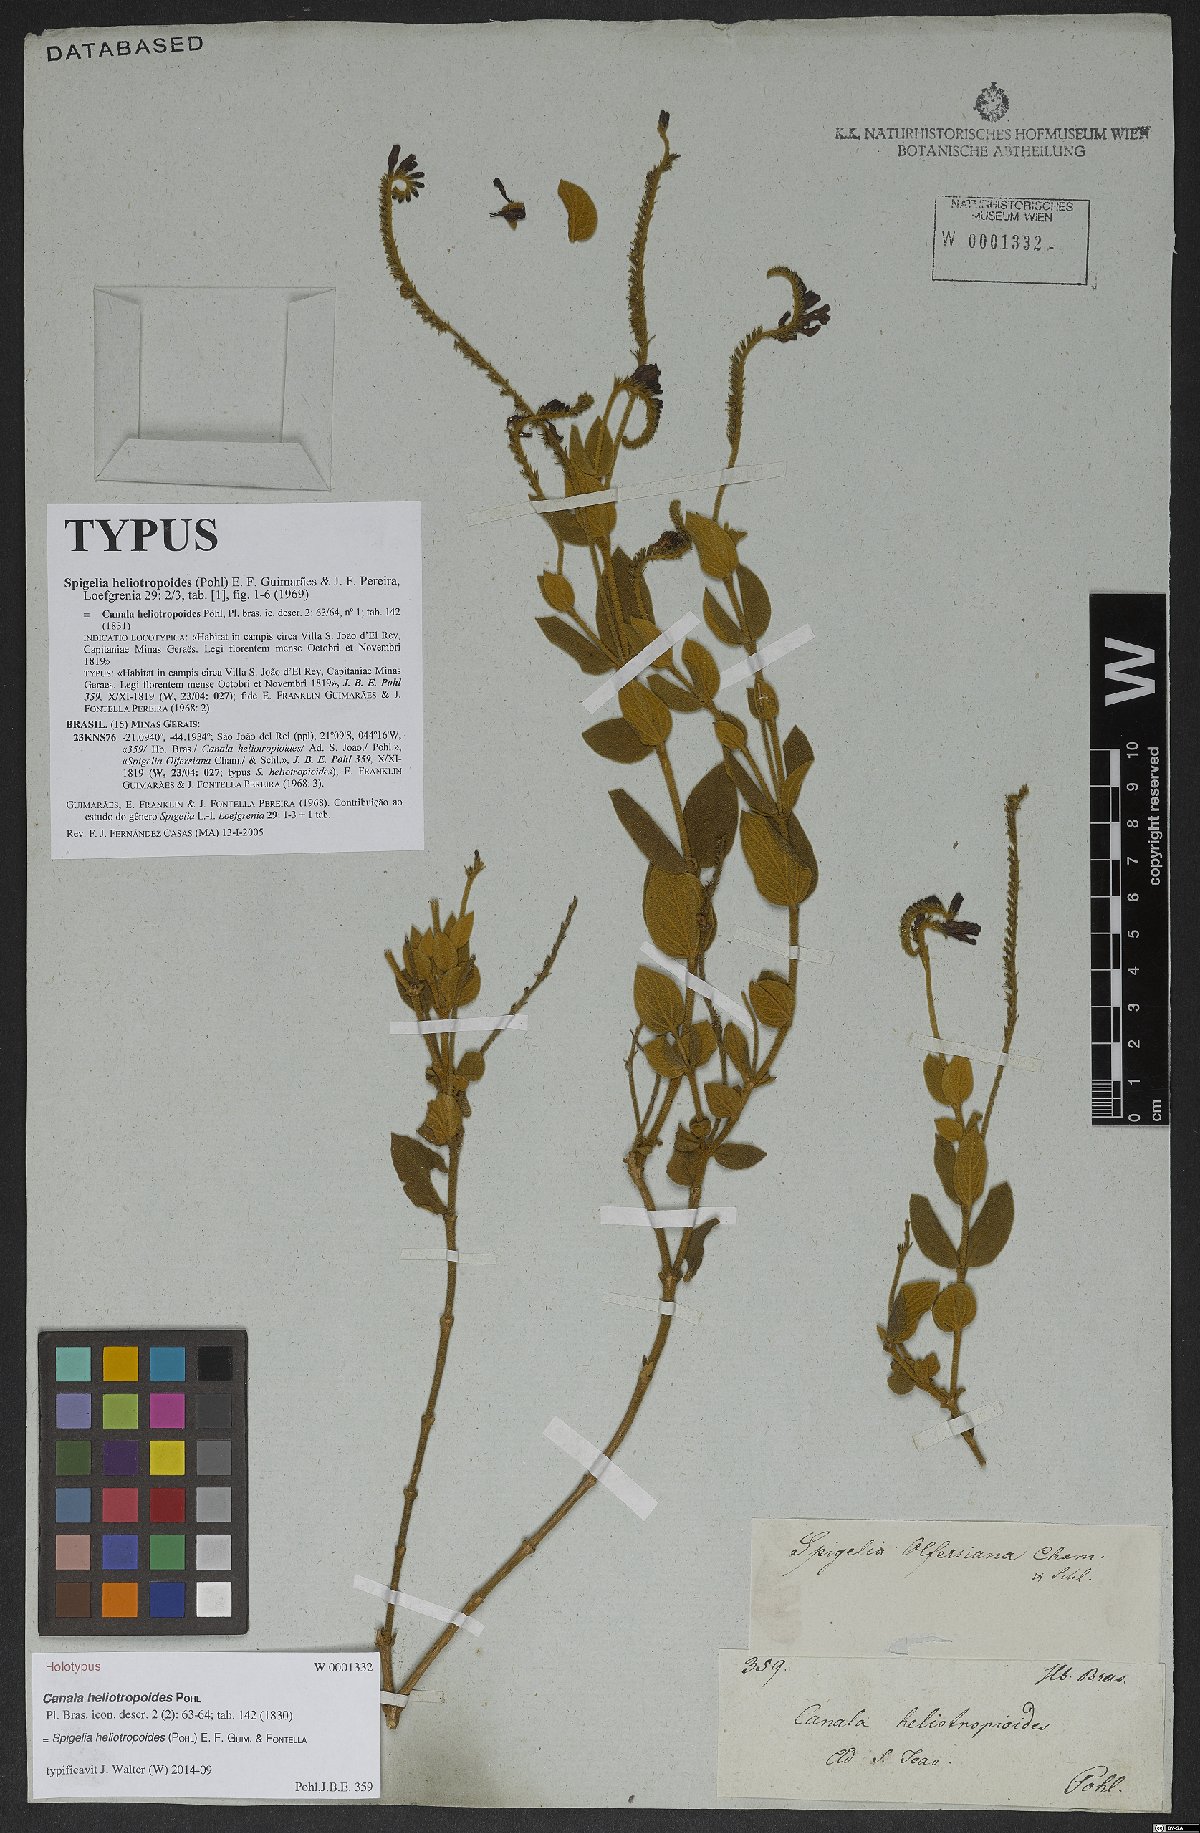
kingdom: Plantae
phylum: Tracheophyta
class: Magnoliopsida
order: Gentianales
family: Loganiaceae
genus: Spigelia
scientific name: Spigelia heliotropoides
